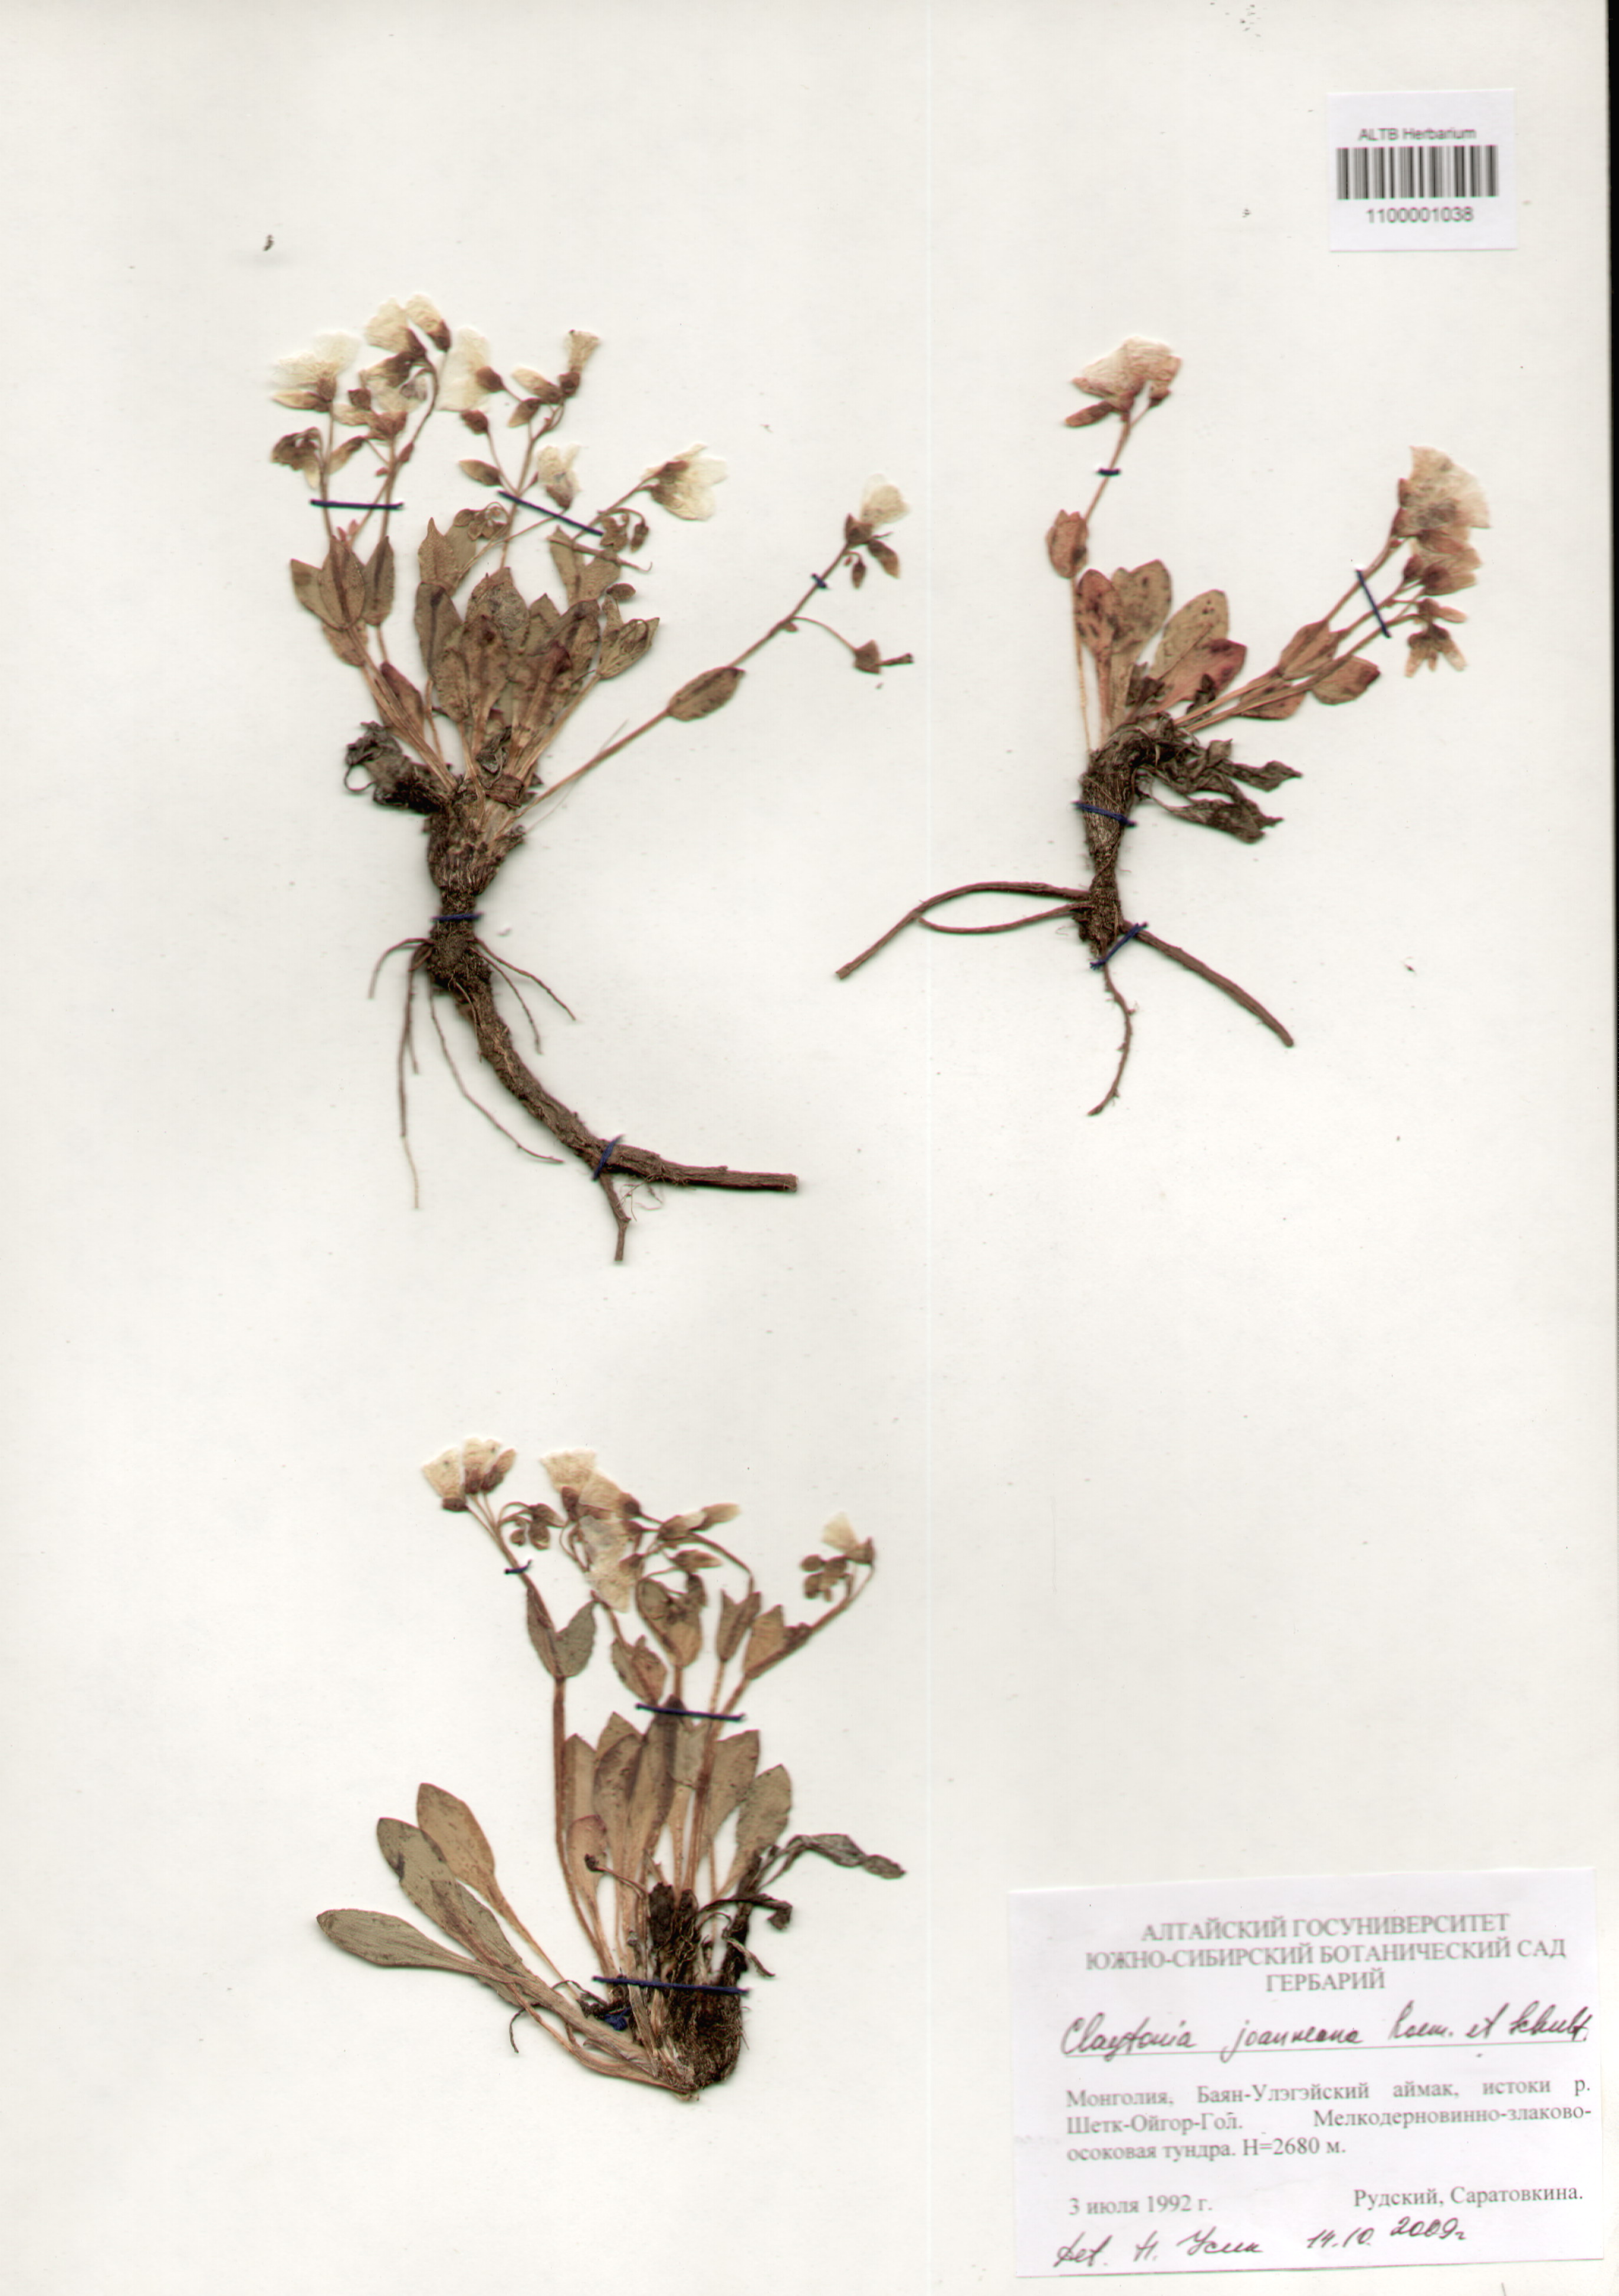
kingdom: Plantae
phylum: Tracheophyta
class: Magnoliopsida
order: Caryophyllales
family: Montiaceae
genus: Claytonia
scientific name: Claytonia joanneana
